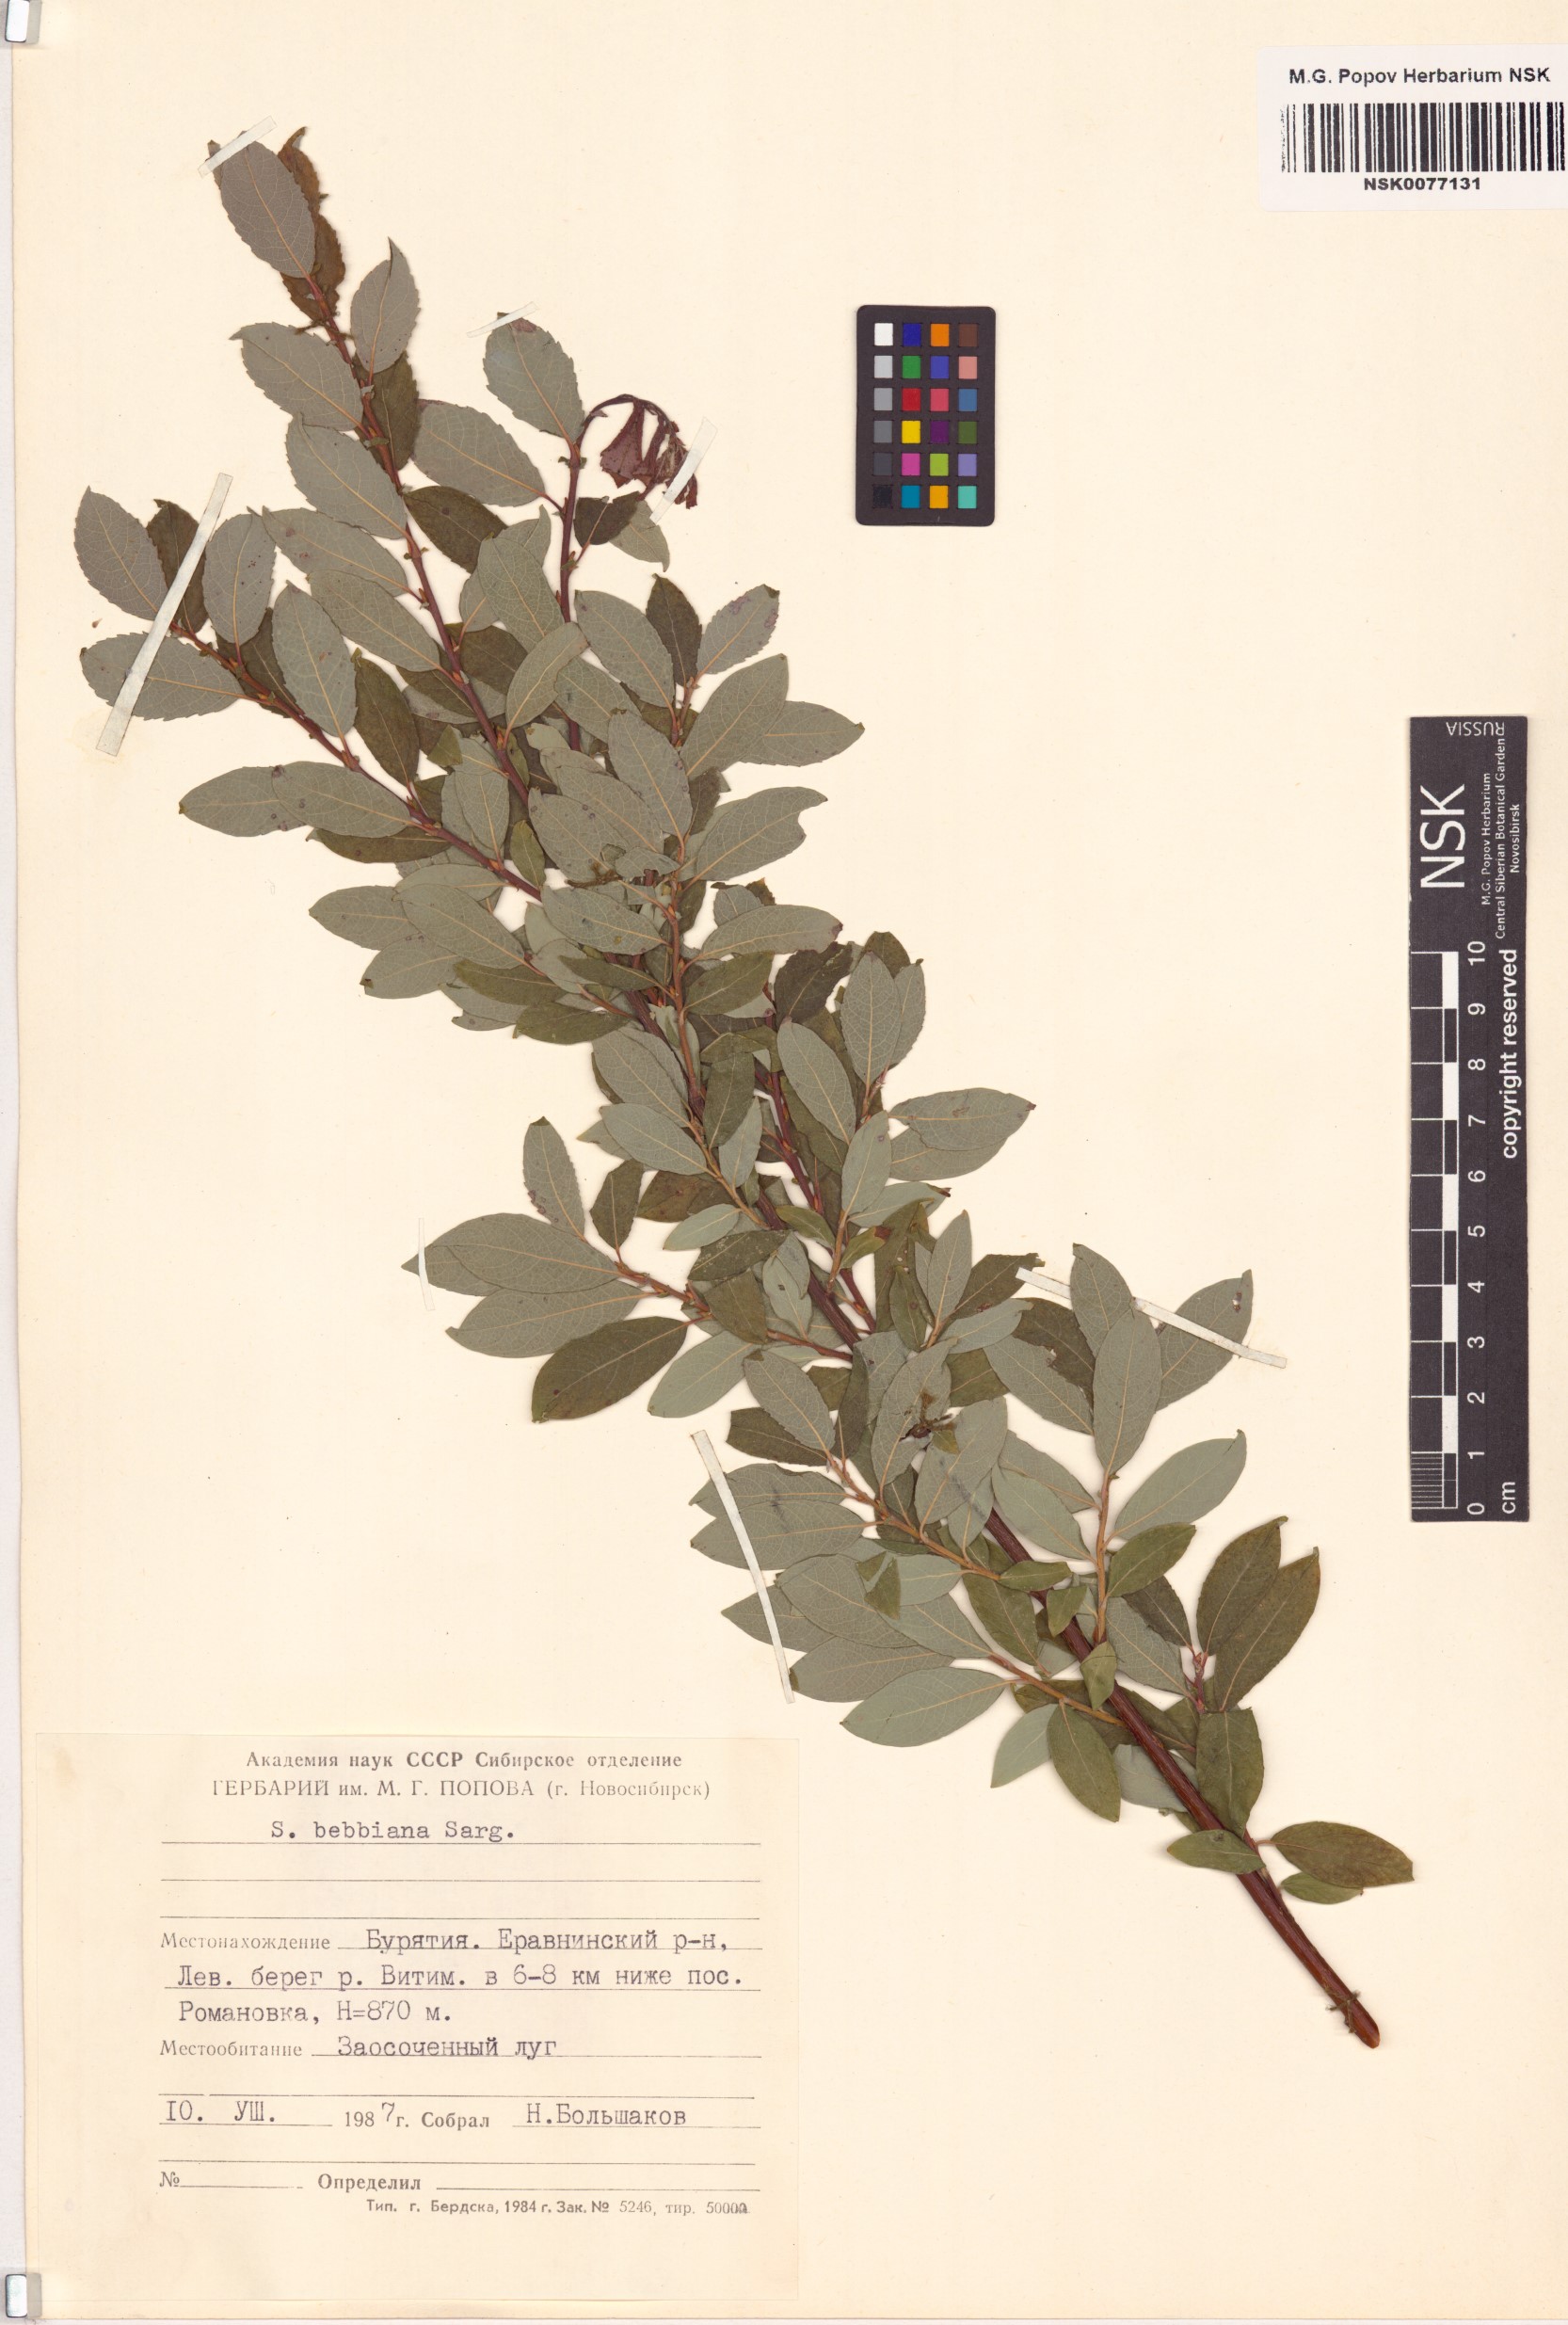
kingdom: Plantae
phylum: Tracheophyta
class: Magnoliopsida
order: Malpighiales
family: Salicaceae
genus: Salix
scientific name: Salix bebbiana
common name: Bebb's willow
